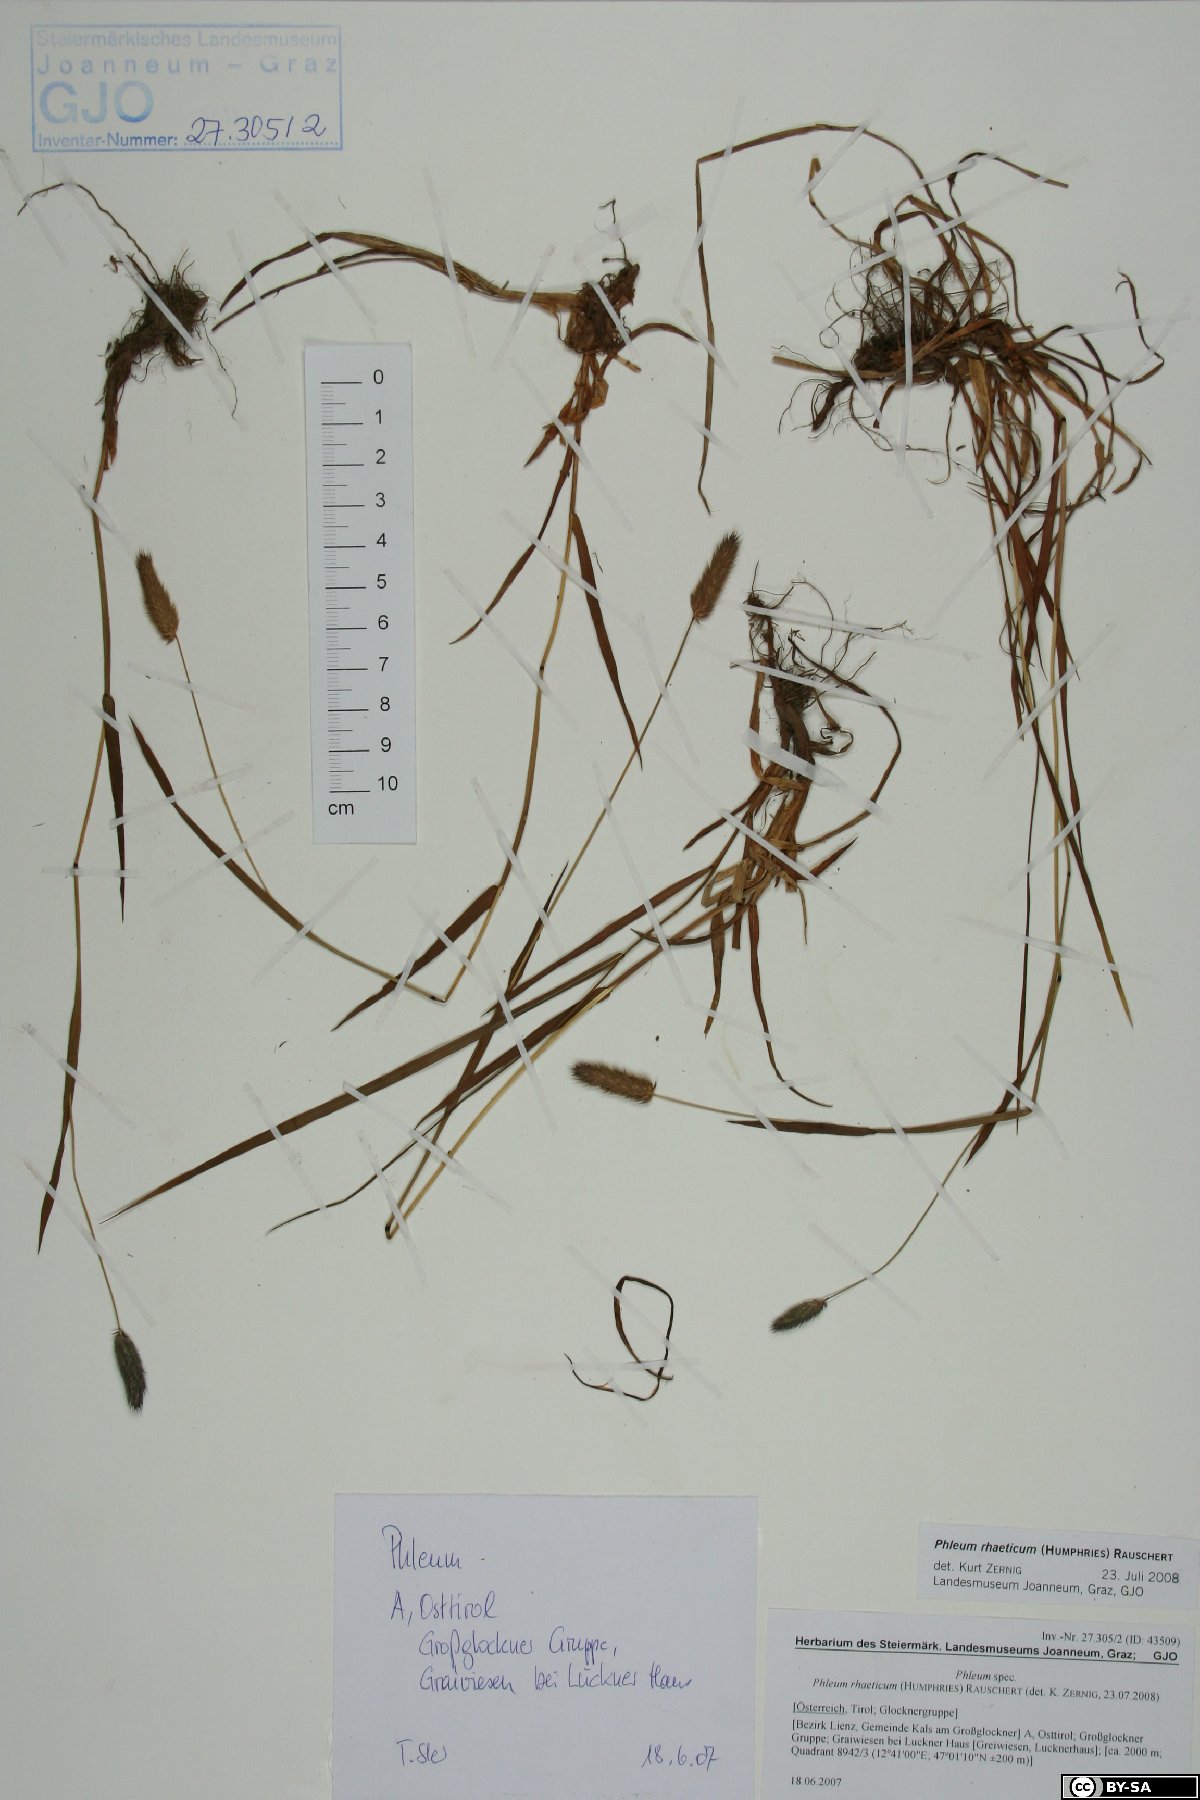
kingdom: Plantae
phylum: Tracheophyta
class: Liliopsida
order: Poales
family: Poaceae
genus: Phleum
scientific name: Phleum alpinum
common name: Alpine cat's-tail
